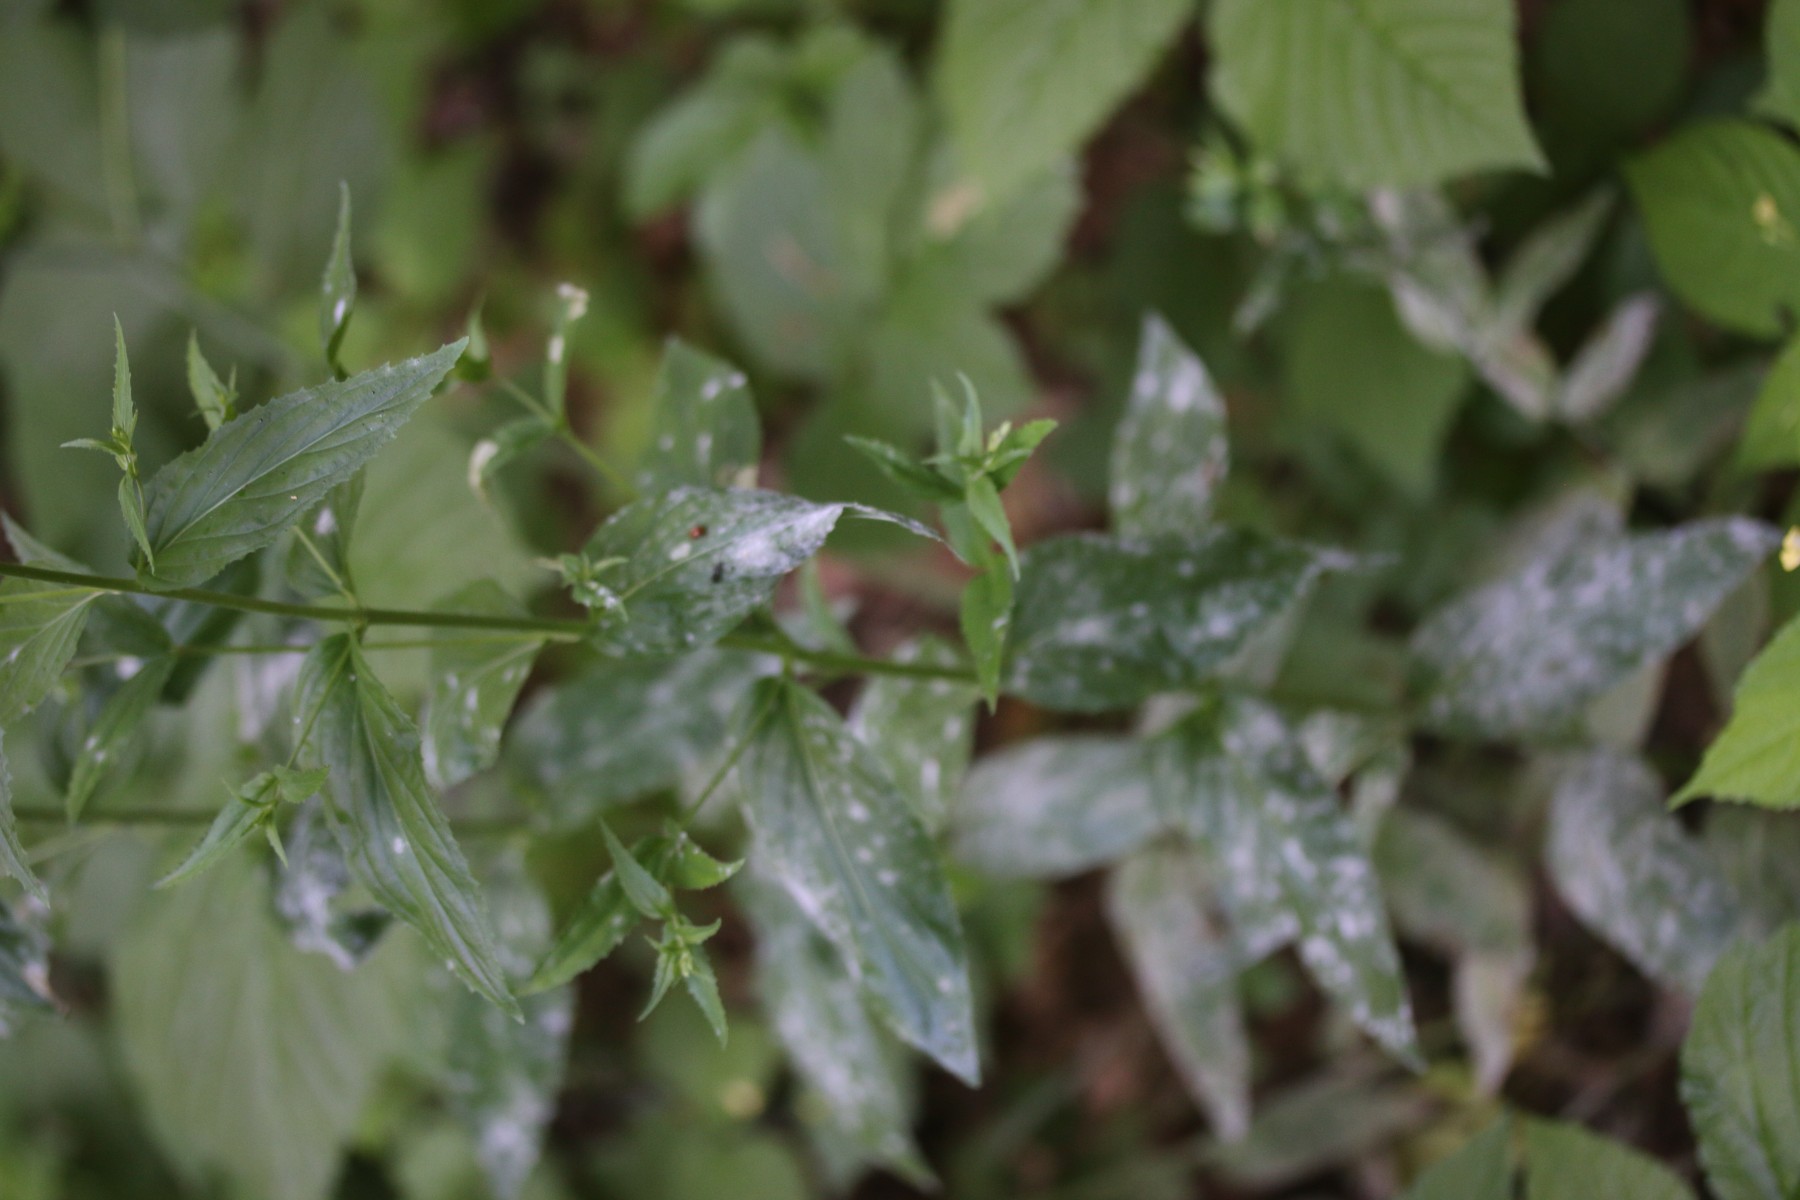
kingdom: Fungi
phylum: Ascomycota
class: Leotiomycetes
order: Helotiales
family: Erysiphaceae
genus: Podosphaera
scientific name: Podosphaera epilobii
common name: dueurt-meldug
